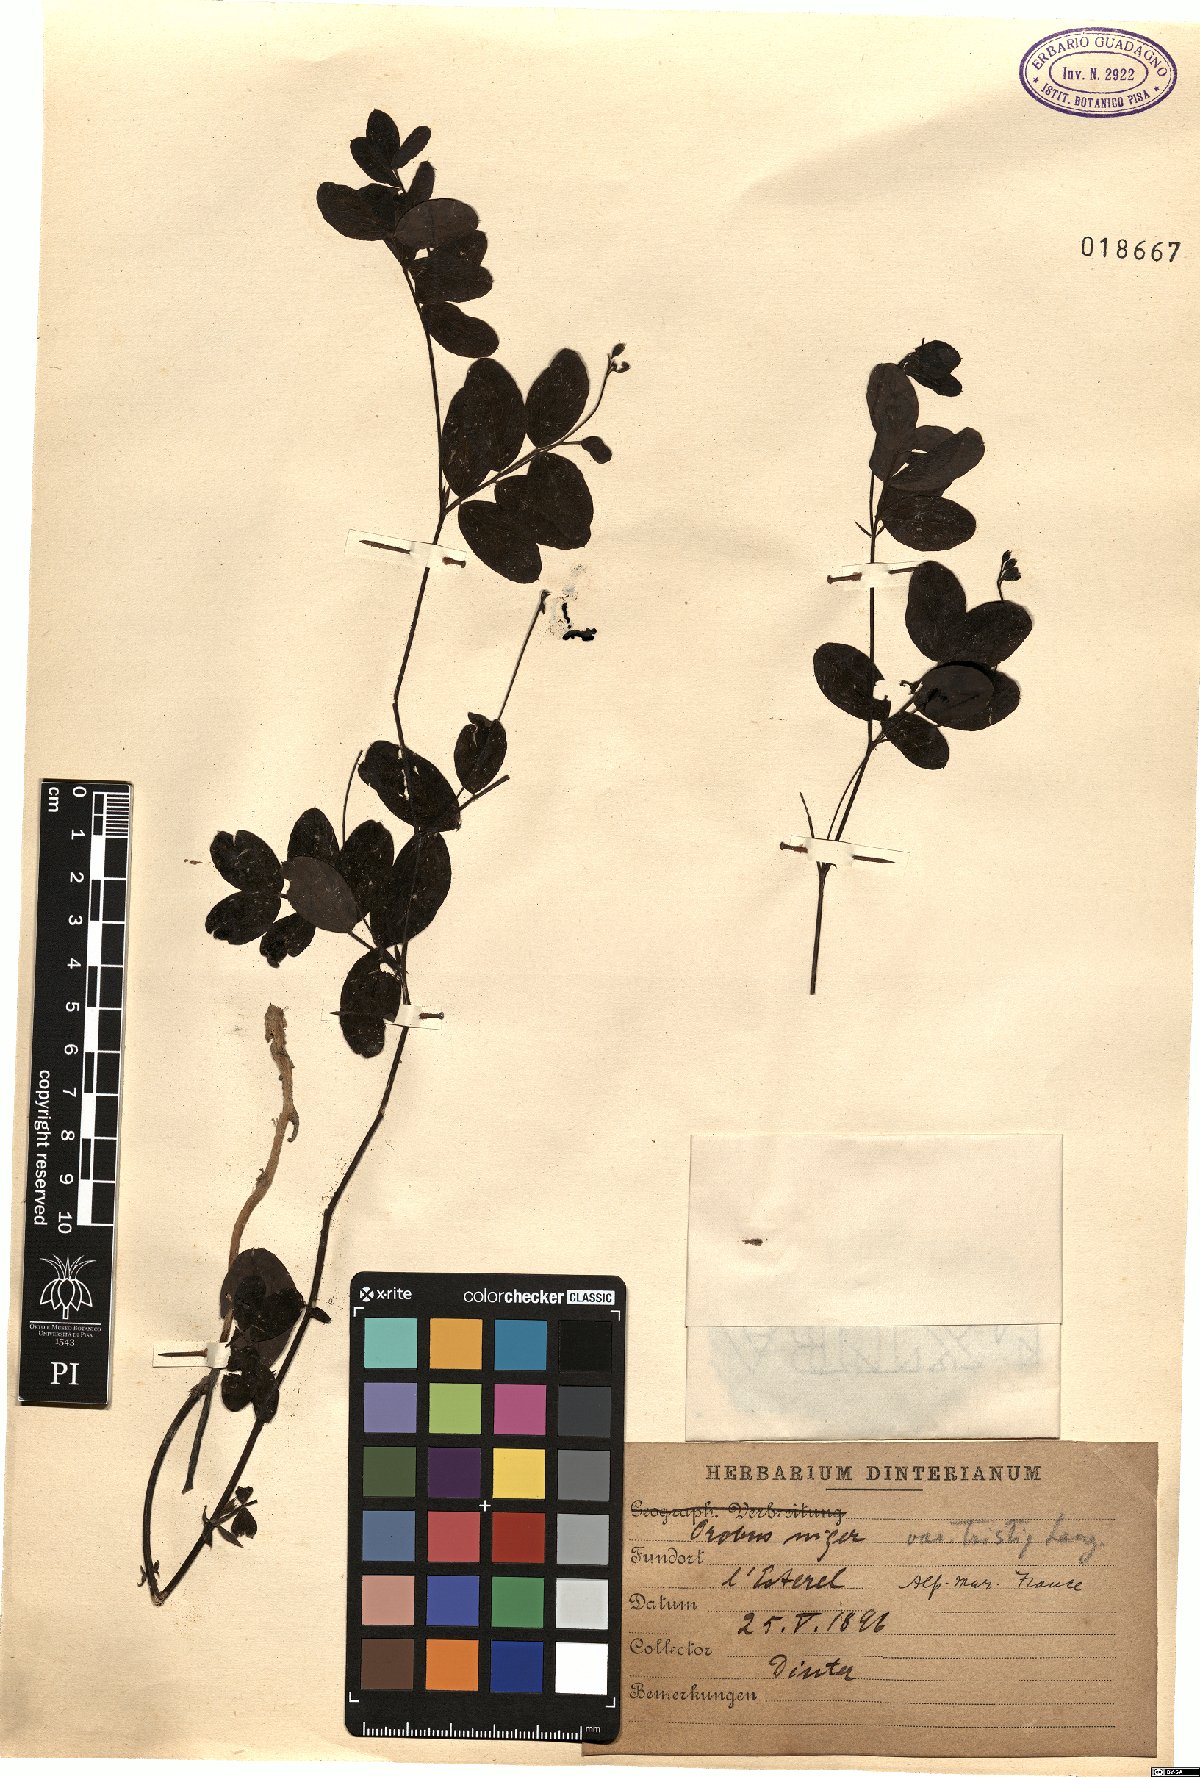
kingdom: Plantae
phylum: Tracheophyta
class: Magnoliopsida
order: Fabales
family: Fabaceae
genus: Lathyrus
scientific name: Lathyrus niger
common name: Black pea
